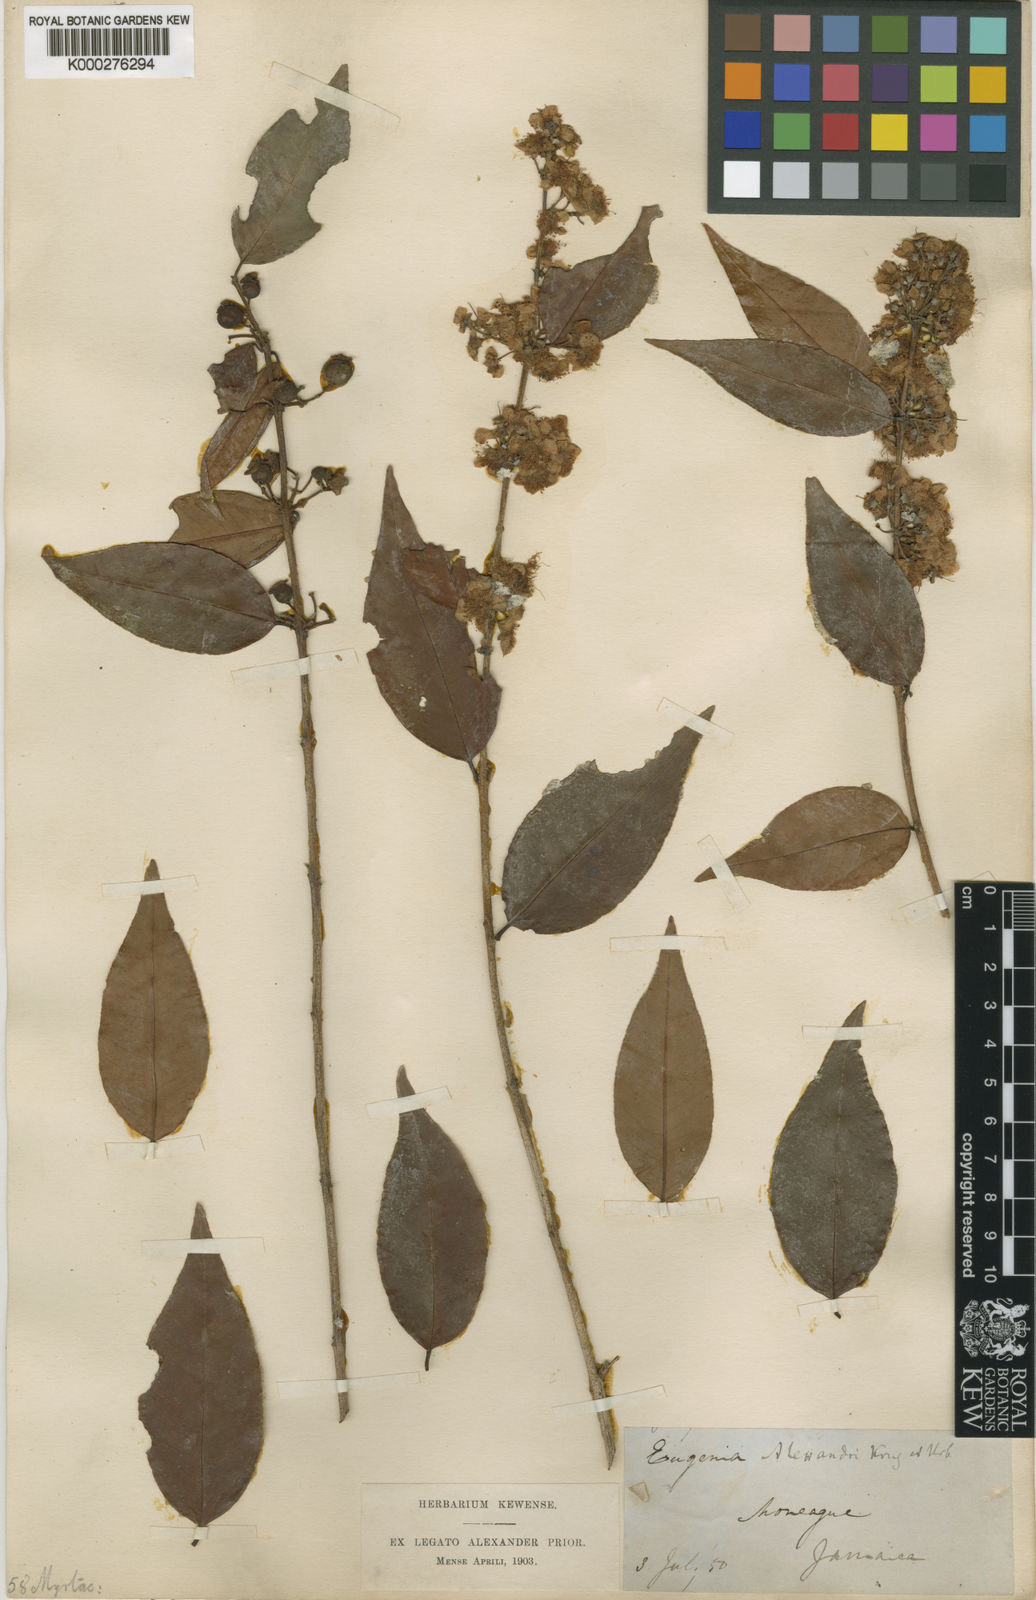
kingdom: Plantae
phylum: Tracheophyta
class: Magnoliopsida
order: Myrtales
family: Myrtaceae
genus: Eugenia
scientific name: Eugenia alexandri
